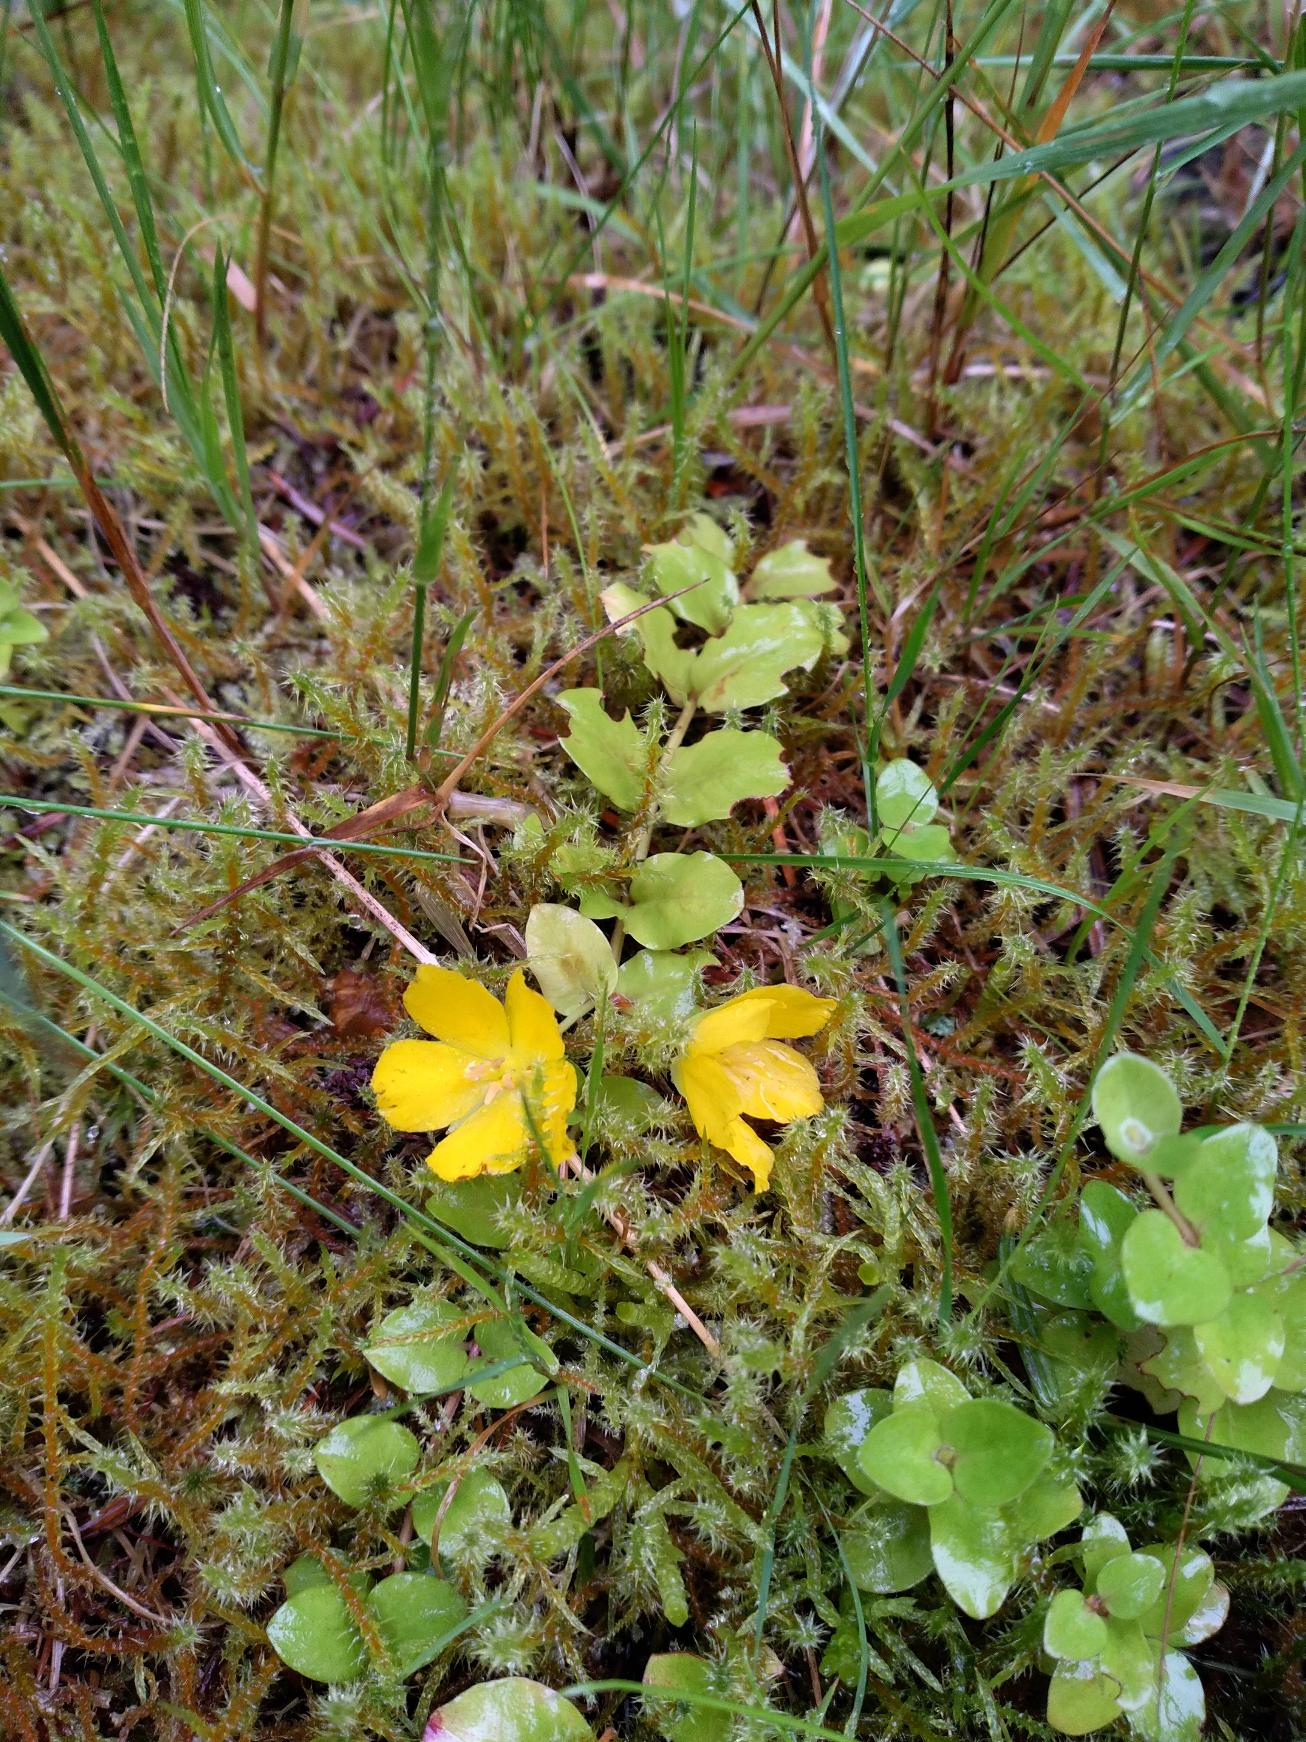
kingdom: Plantae
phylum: Tracheophyta
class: Magnoliopsida
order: Ericales
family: Primulaceae
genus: Lysimachia
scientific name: Lysimachia nummularia
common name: Pengebladet fredløs
